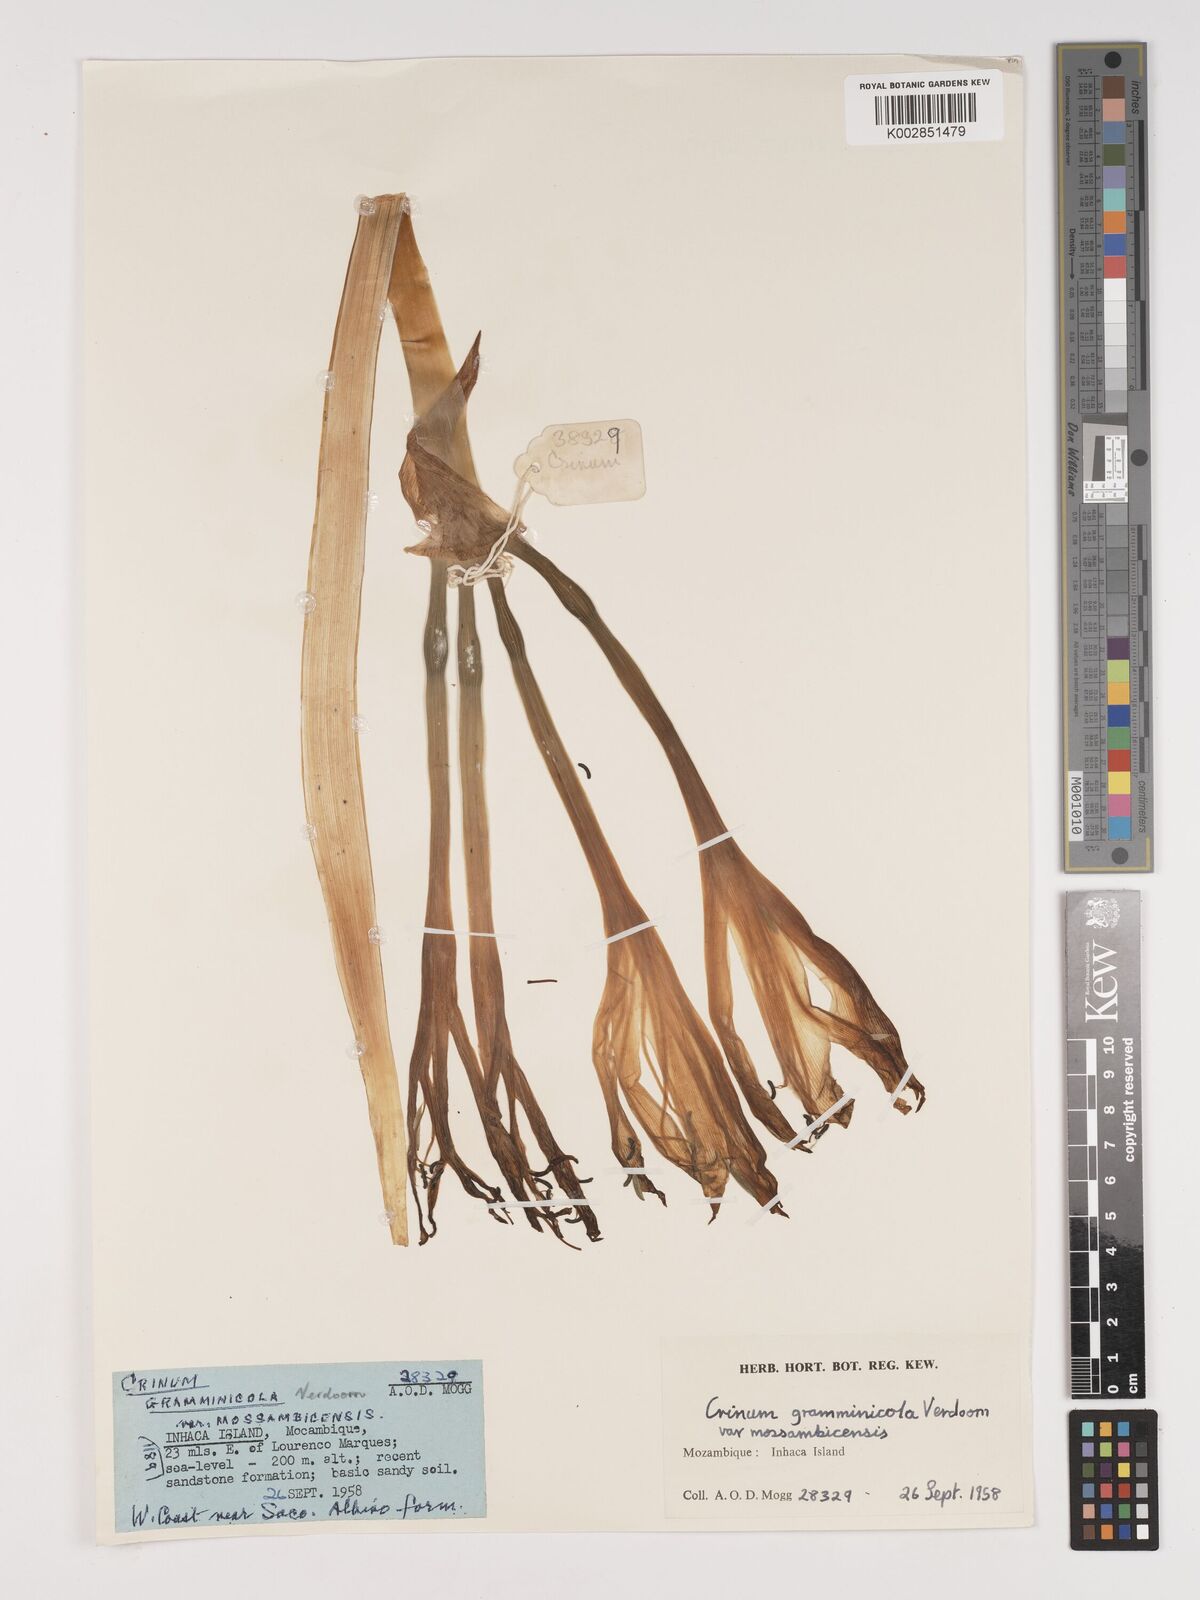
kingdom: Plantae
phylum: Tracheophyta
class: Liliopsida
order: Asparagales
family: Amaryllidaceae
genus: Crinum
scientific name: Crinum graminicola
